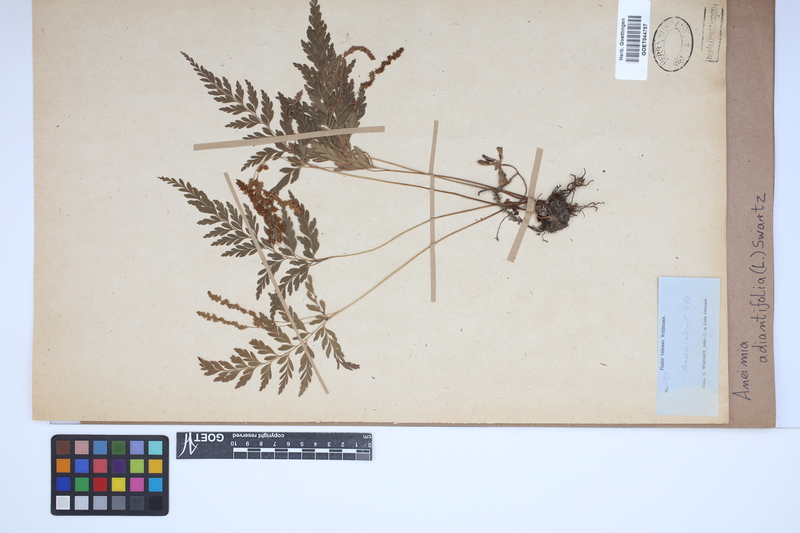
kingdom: Plantae
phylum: Tracheophyta
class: Polypodiopsida
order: Schizaeales
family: Anemiaceae
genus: Anemia
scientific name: Anemia adiantifolia
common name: Pine fern
